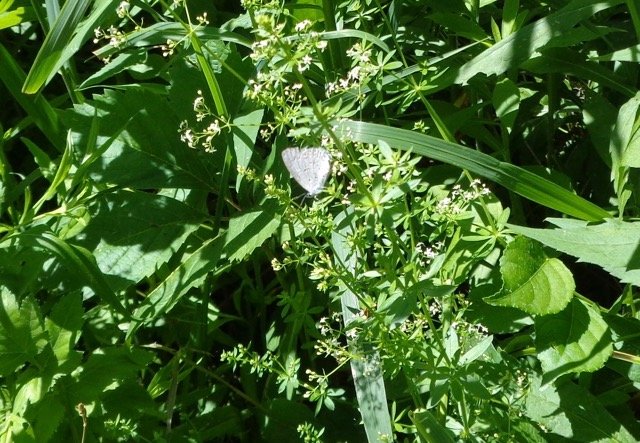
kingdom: Animalia
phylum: Arthropoda
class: Insecta
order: Lepidoptera
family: Lycaenidae
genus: Celastrina
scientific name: Celastrina lucia
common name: Northern Spring Azure
